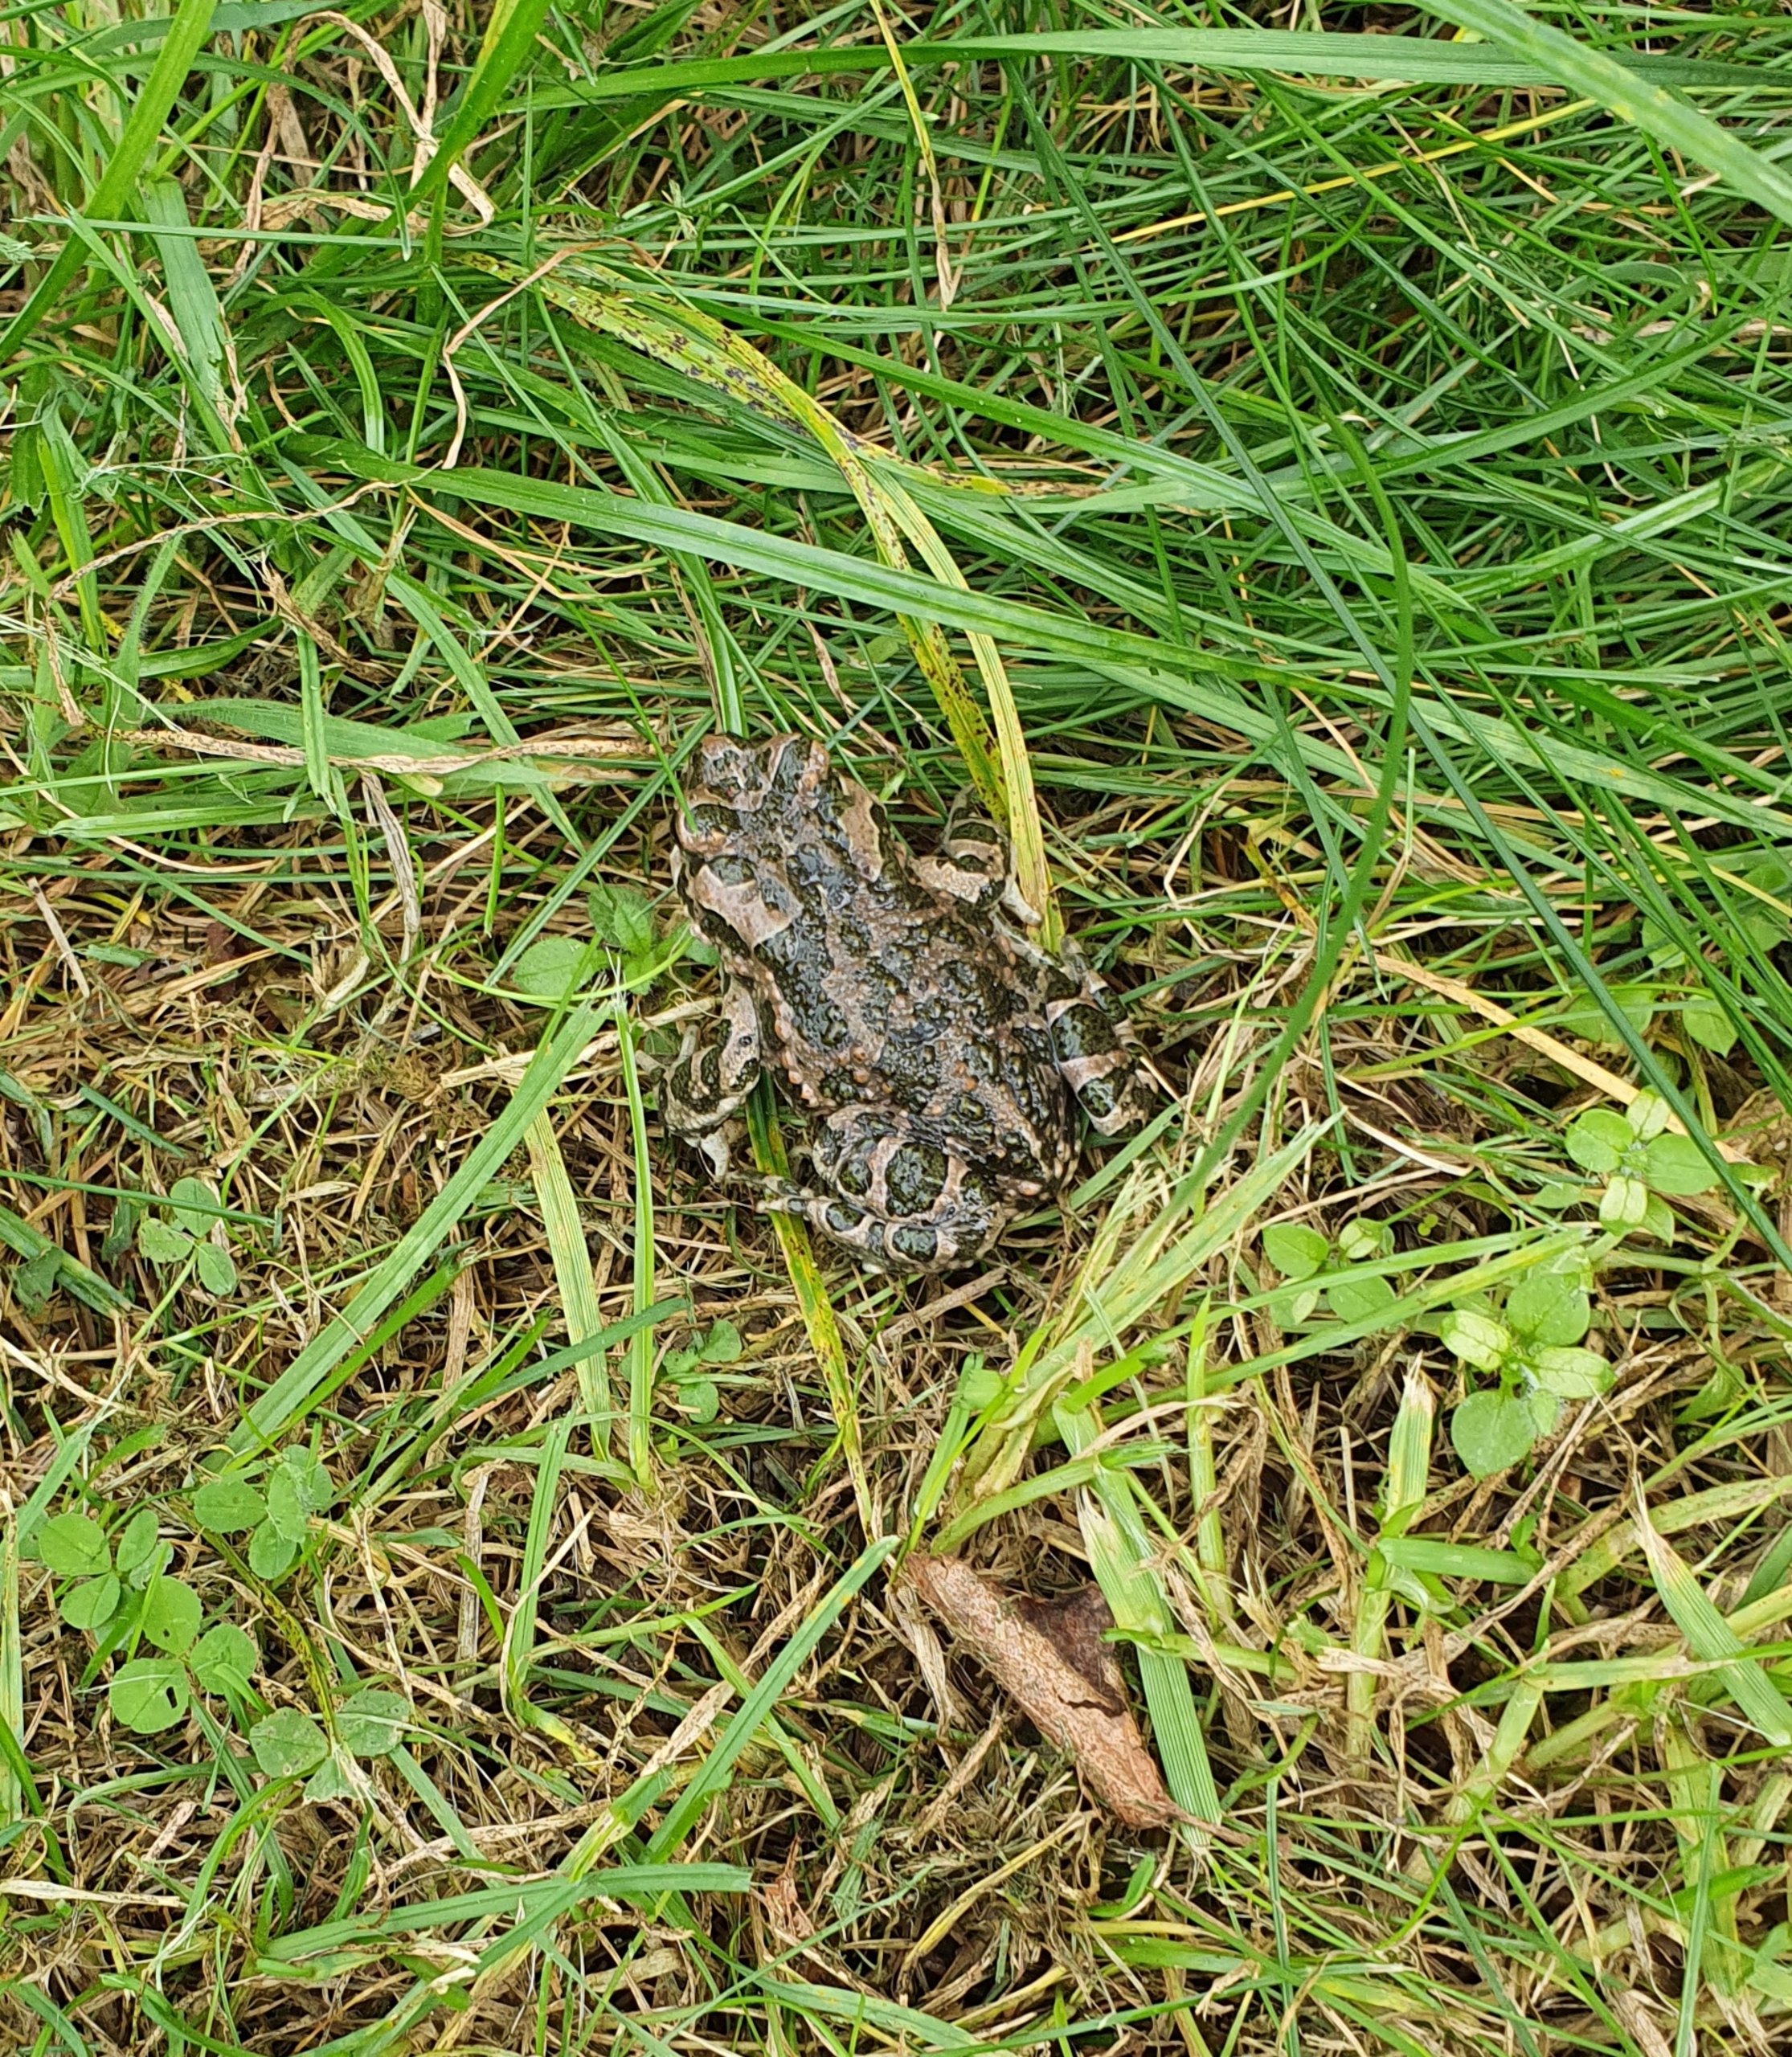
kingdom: Animalia
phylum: Chordata
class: Amphibia
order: Anura
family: Bufonidae
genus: Bufotes
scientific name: Bufotes viridis
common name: Grønbroget tudse
